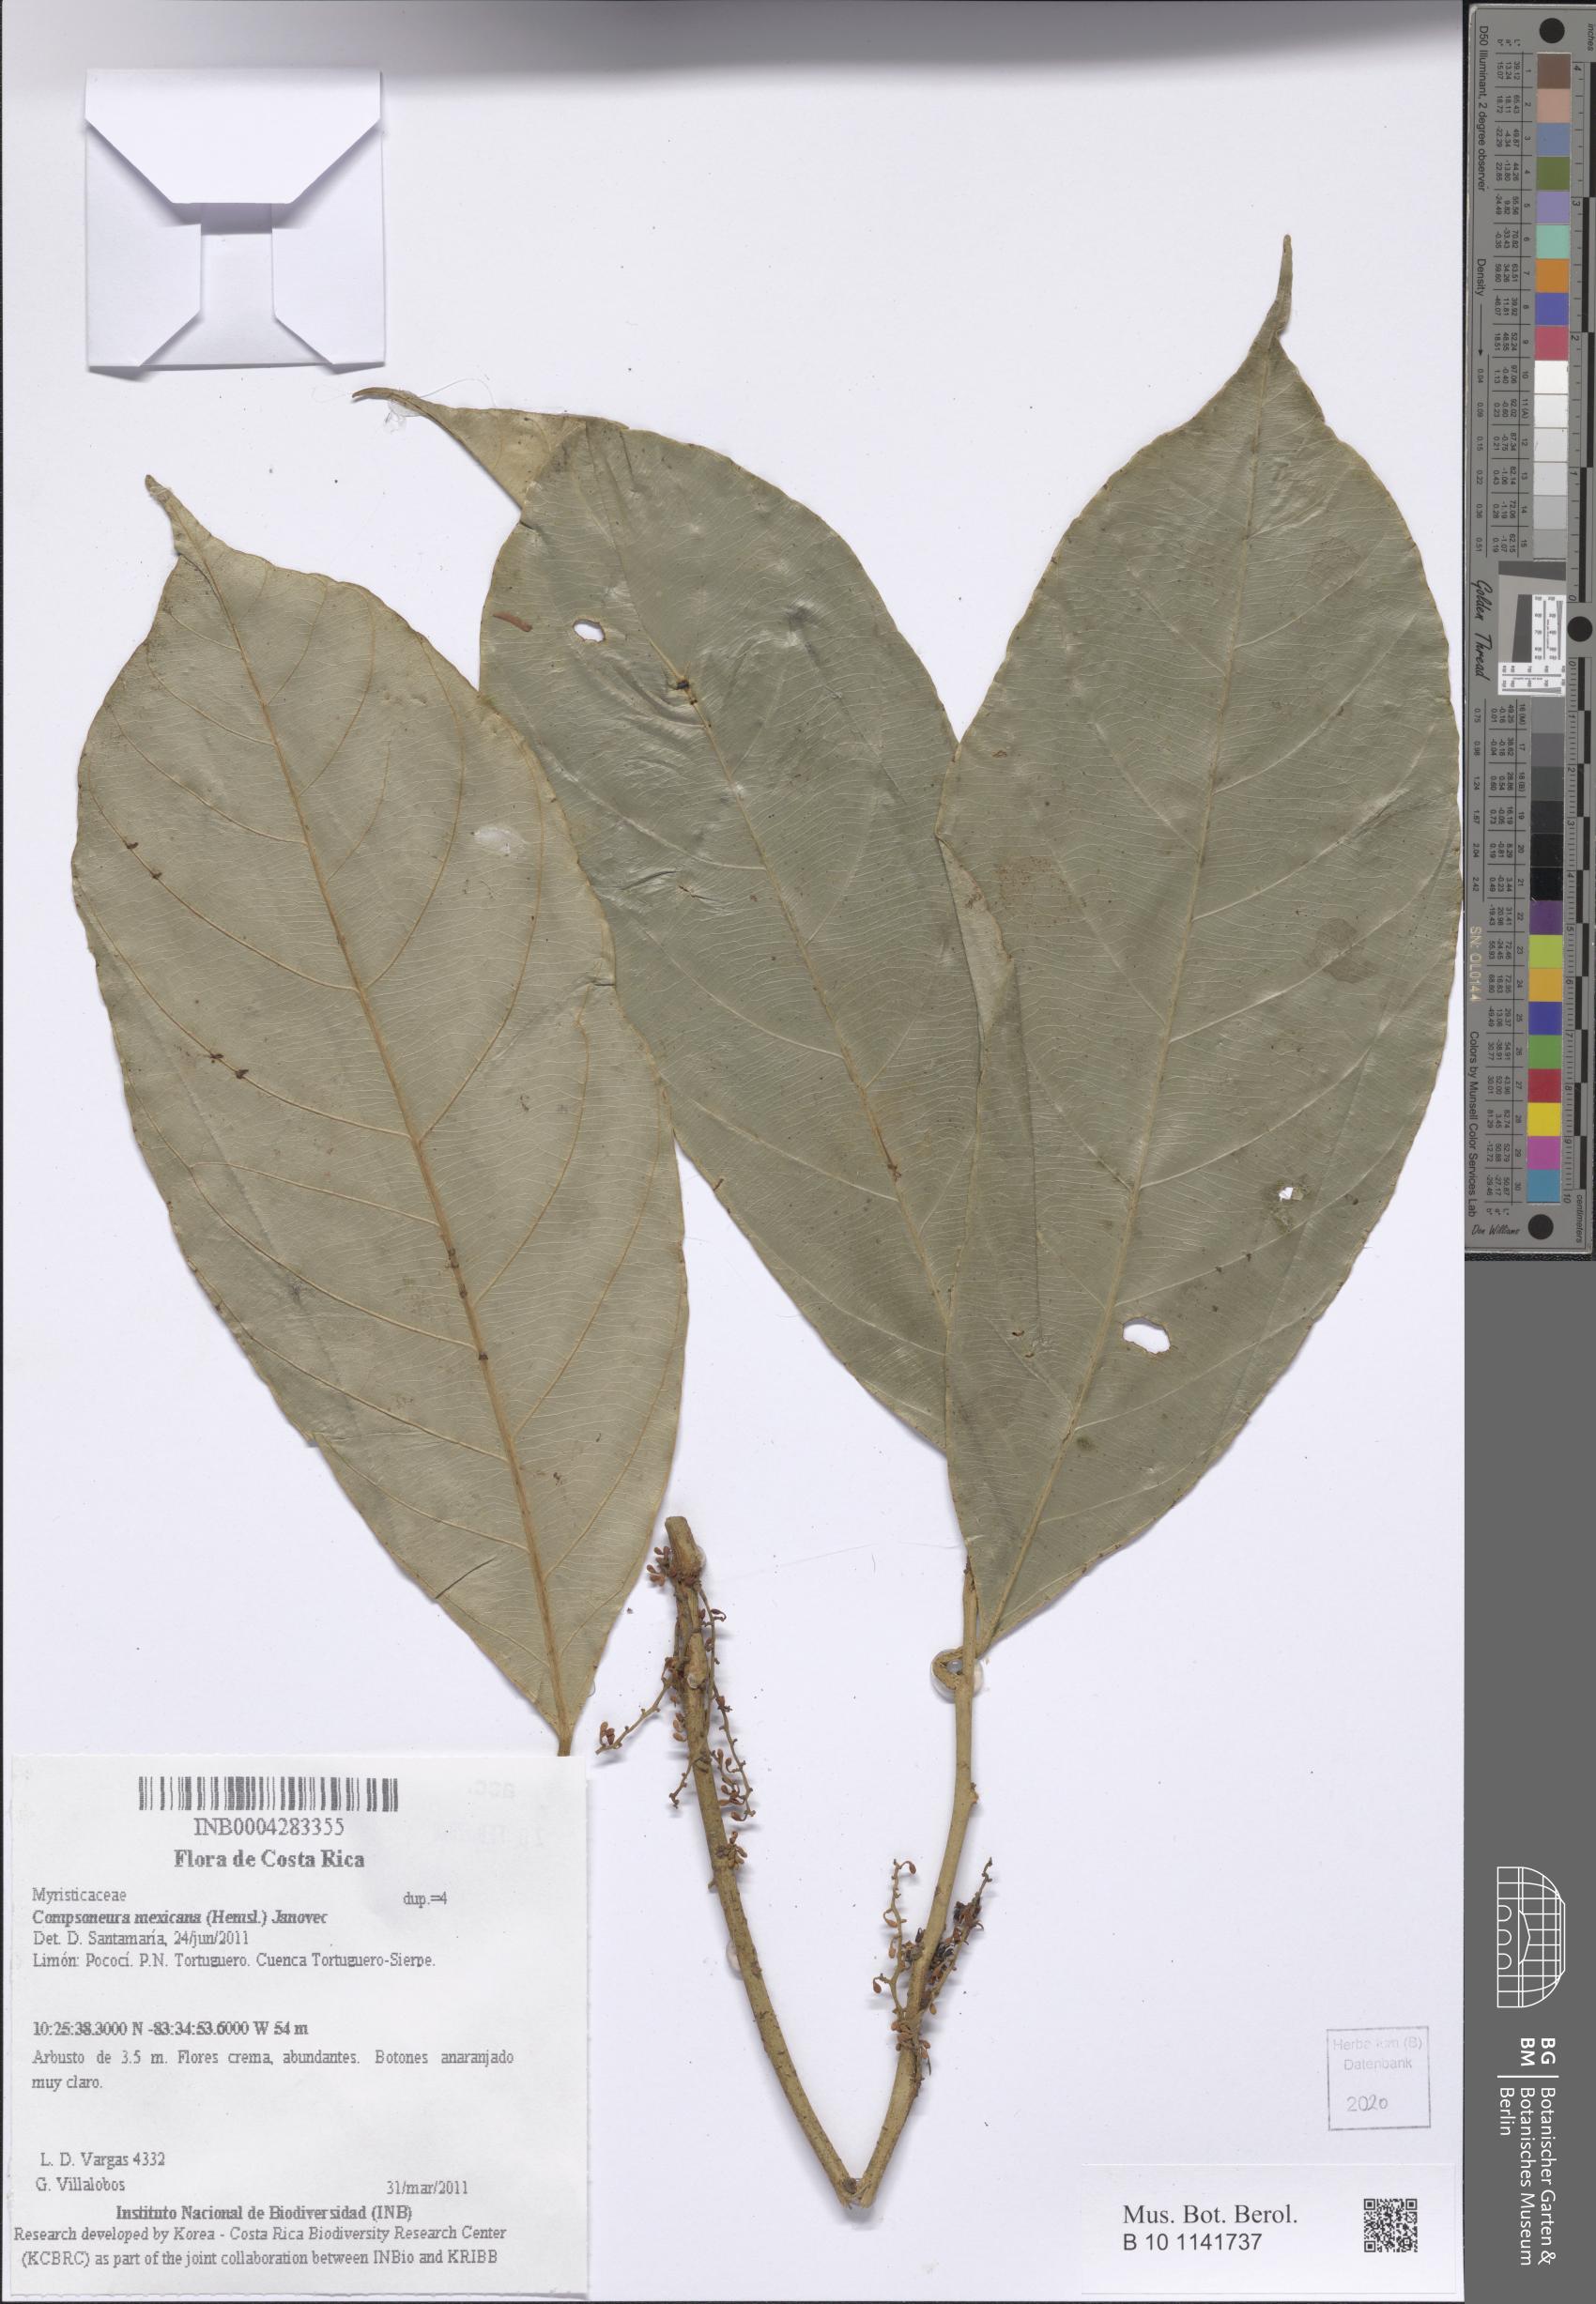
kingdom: Plantae
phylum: Tracheophyta
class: Magnoliopsida
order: Magnoliales
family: Myristicaceae
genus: Compsoneura
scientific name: Compsoneura mexicana
